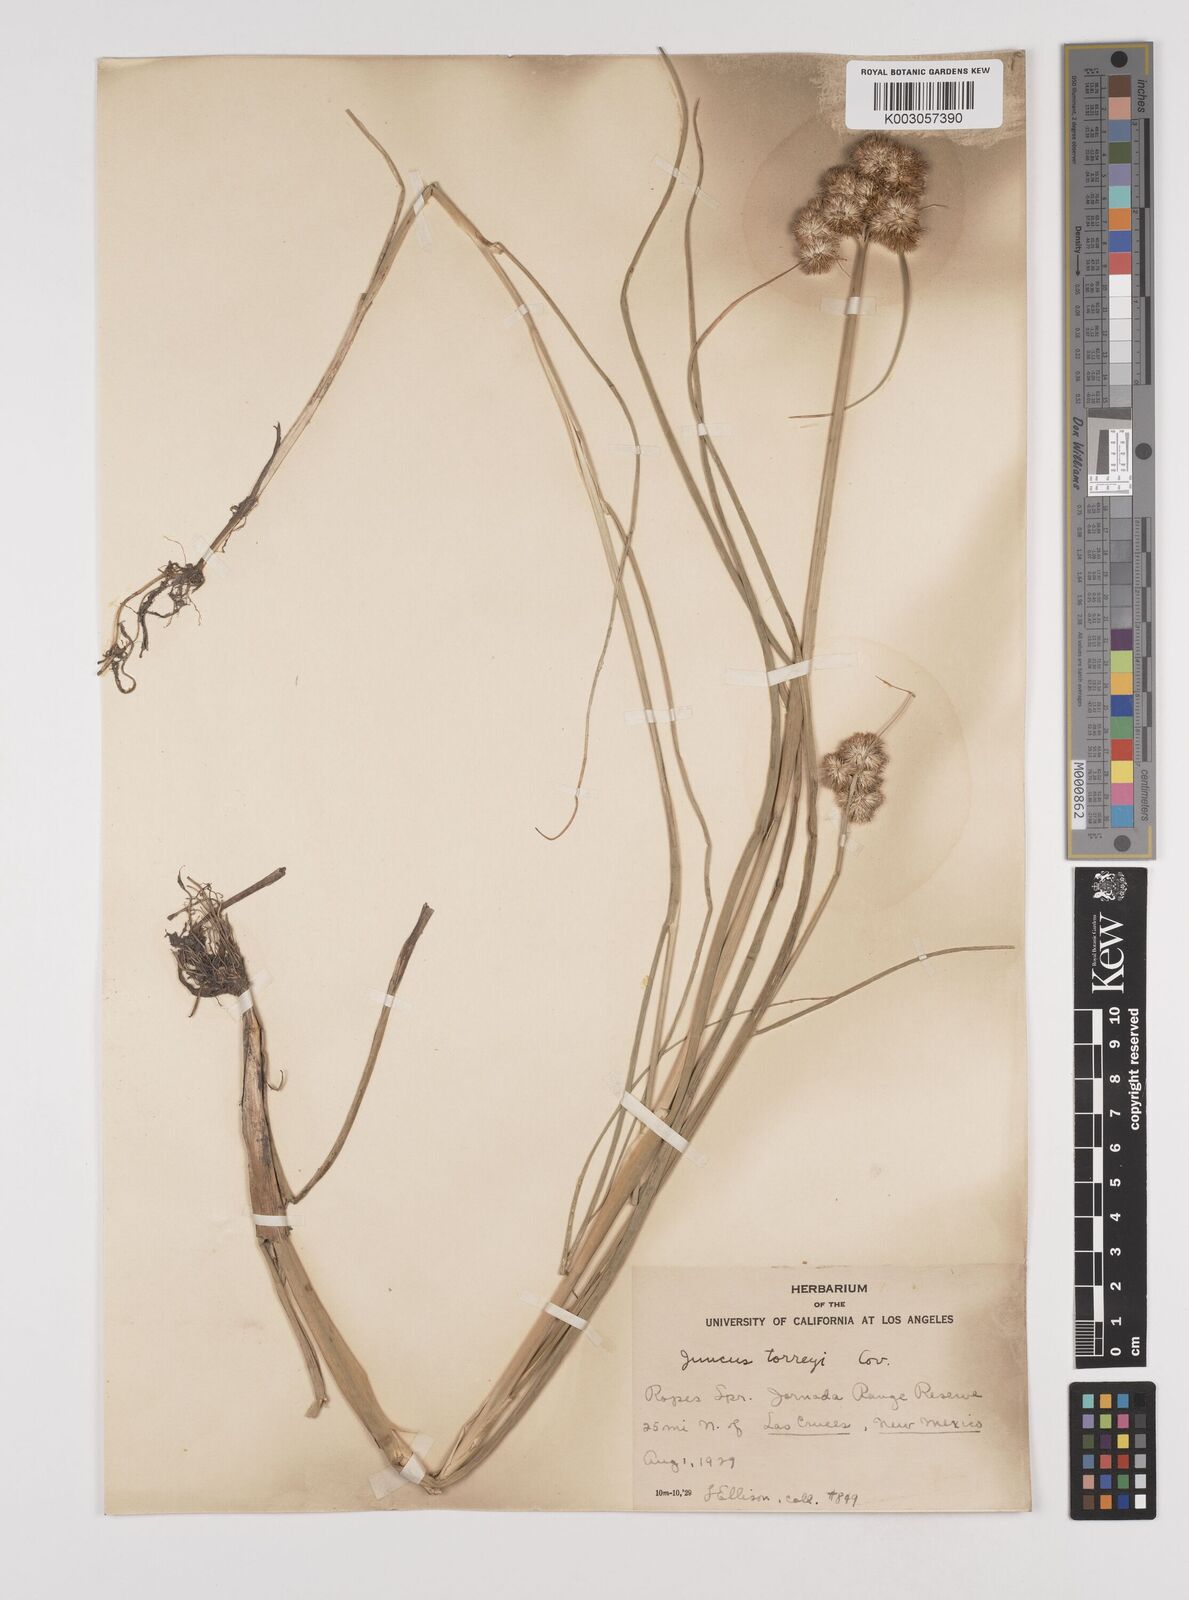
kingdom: Plantae
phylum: Tracheophyta
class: Liliopsida
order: Poales
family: Juncaceae
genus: Juncus
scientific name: Juncus torreyi
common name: Torrey's rush
